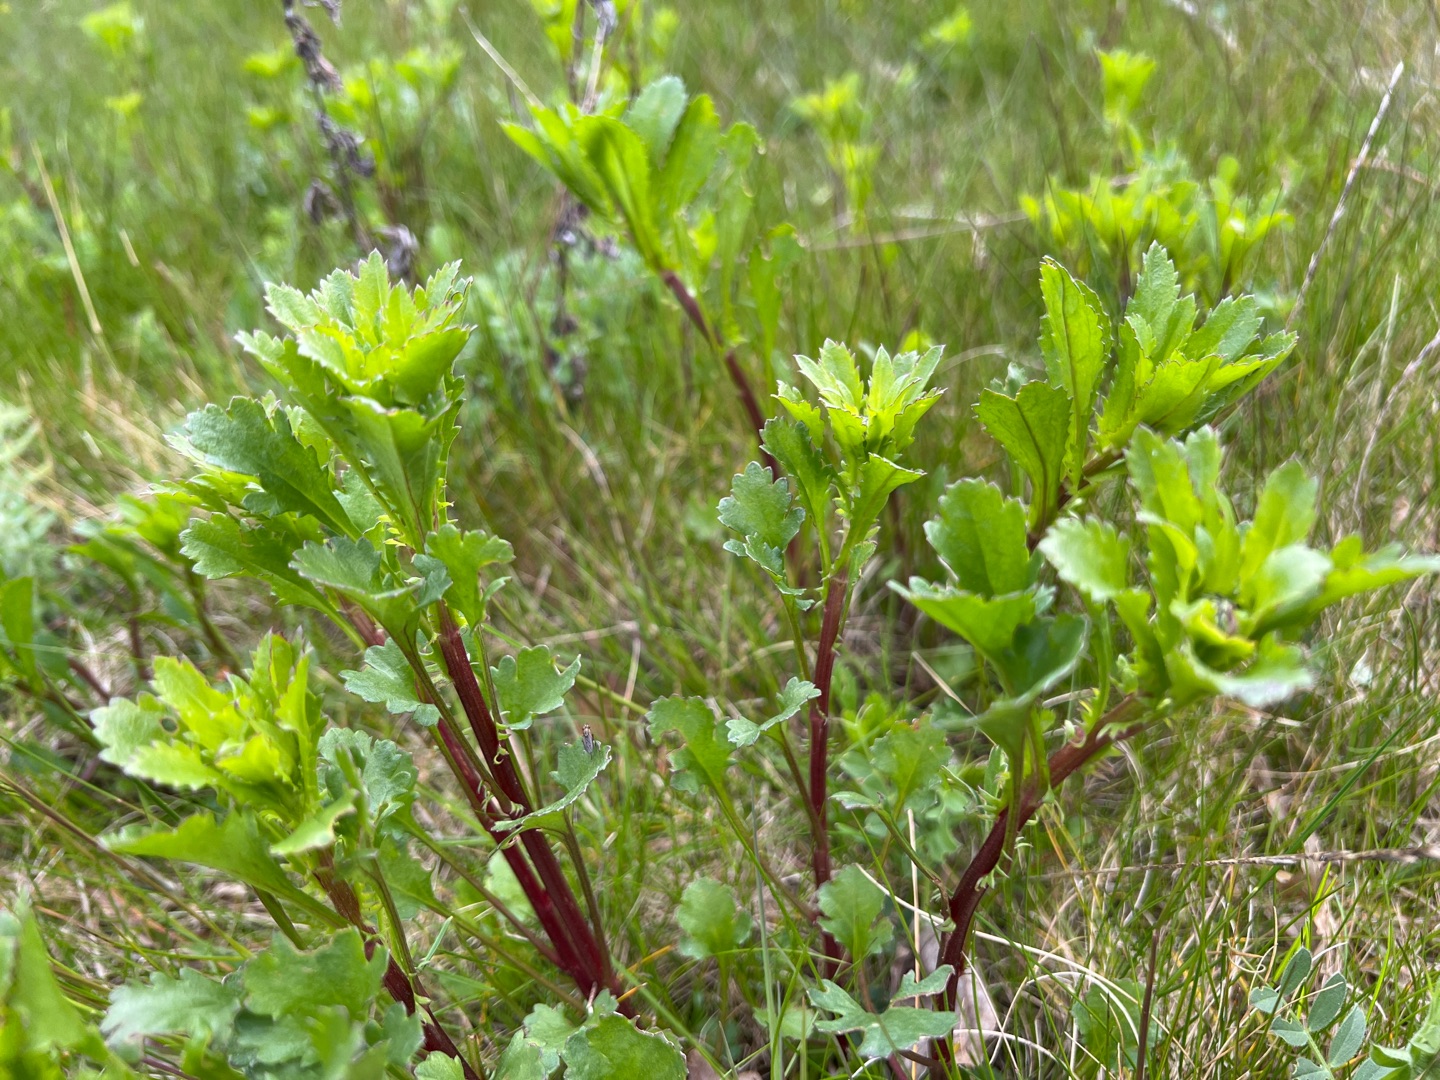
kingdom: Plantae
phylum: Tracheophyta
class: Magnoliopsida
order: Asterales
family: Asteraceae
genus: Leucanthemum
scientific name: Leucanthemum vulgare
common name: Hvid okseøje
